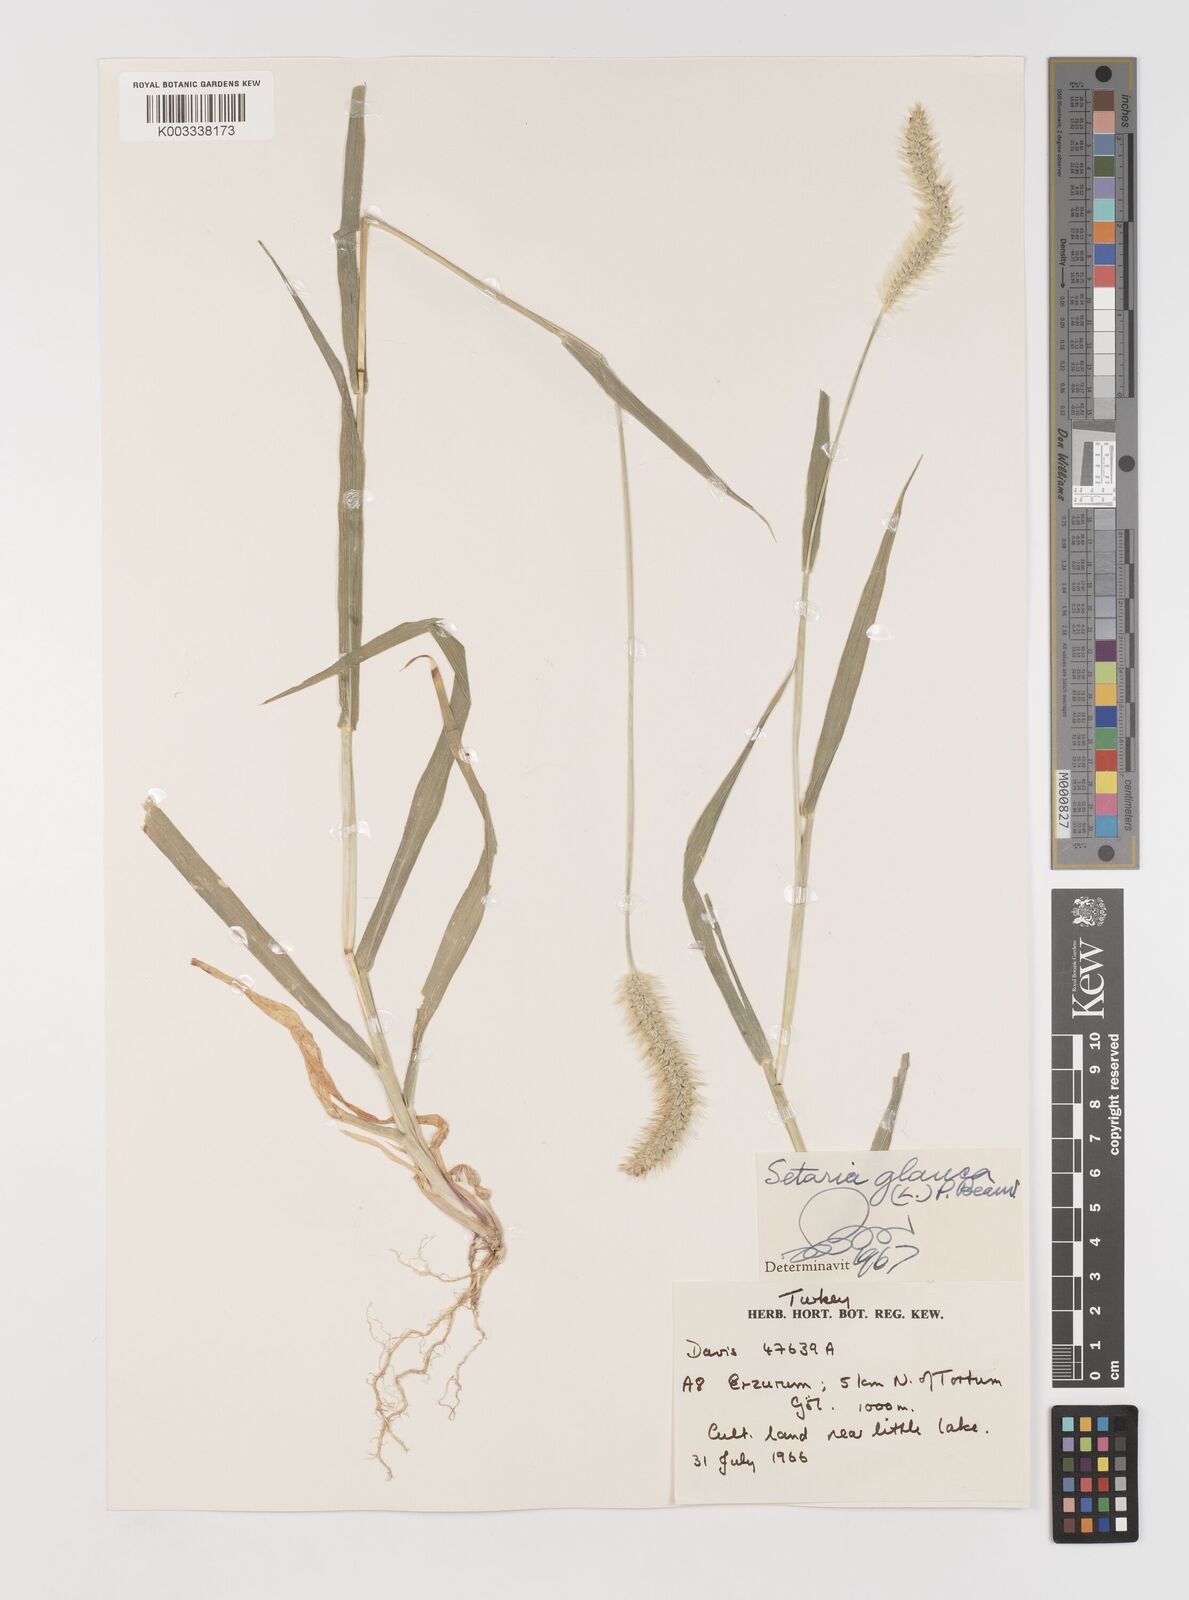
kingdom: Plantae
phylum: Tracheophyta
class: Liliopsida
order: Poales
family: Poaceae
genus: Setaria
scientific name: Setaria pumila
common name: Yellow bristle-grass
